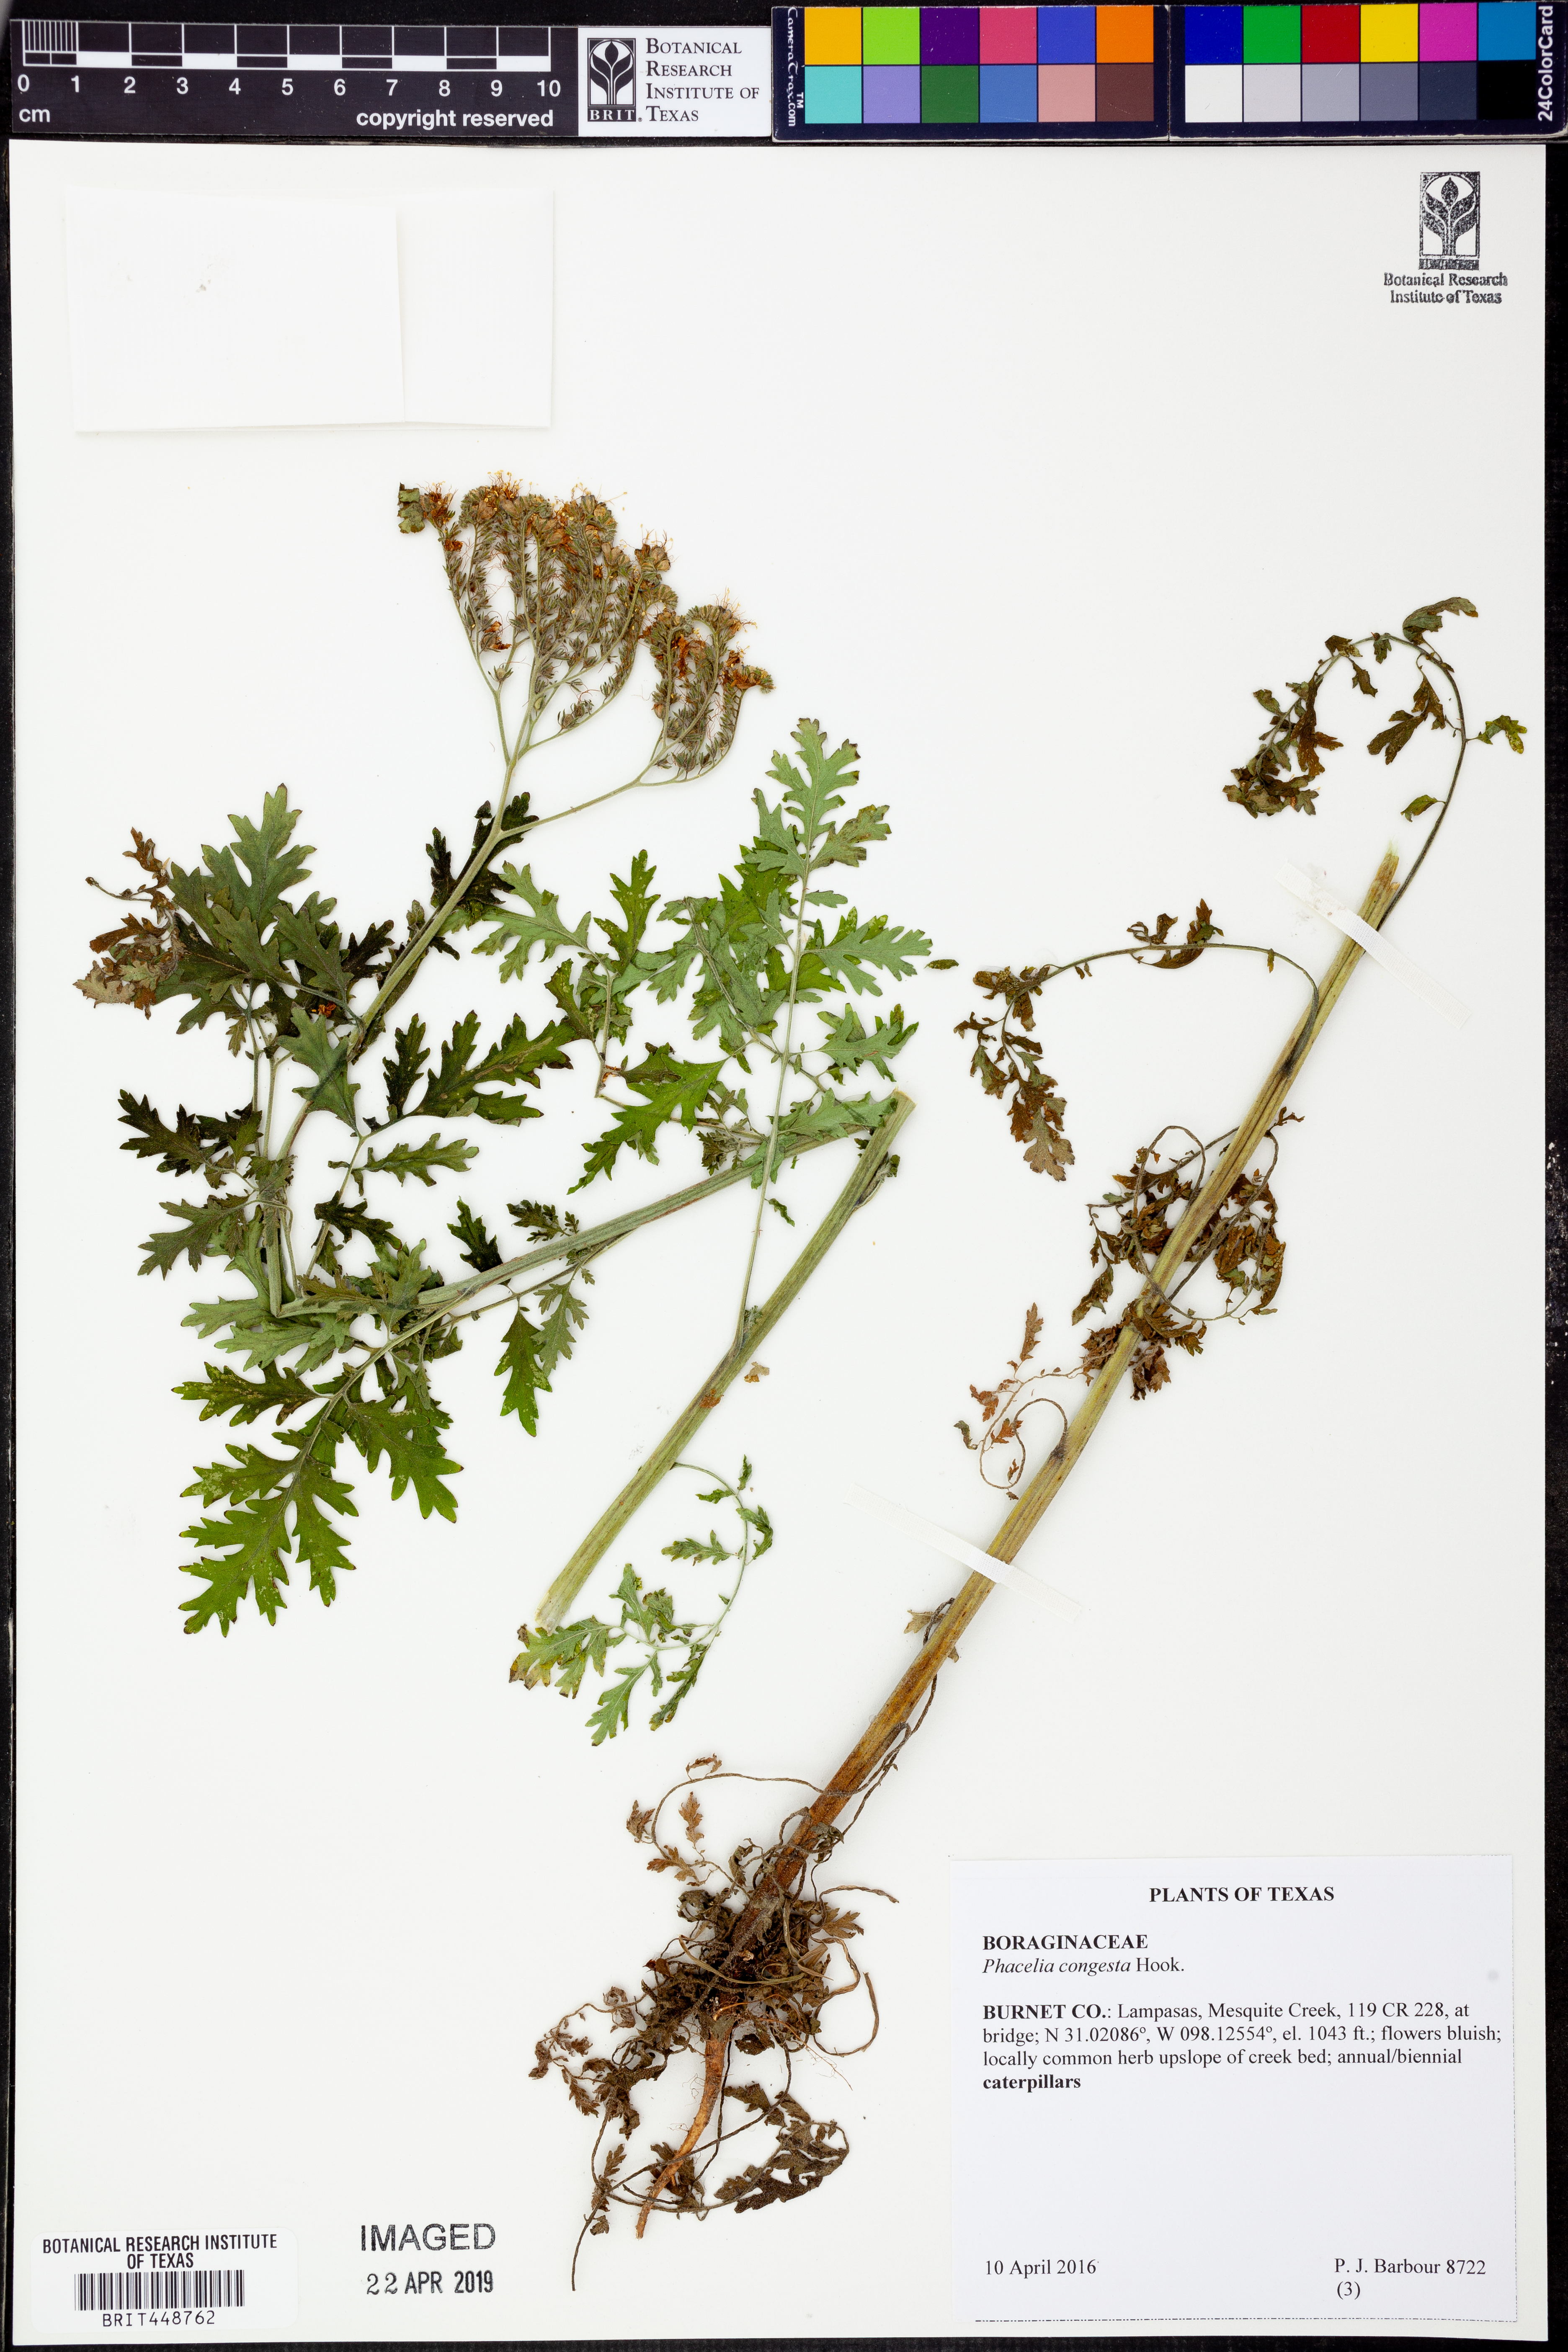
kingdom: Plantae
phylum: Tracheophyta
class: Magnoliopsida
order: Boraginales
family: Hydrophyllaceae
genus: Phacelia
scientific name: Phacelia congesta
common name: Blue curls
